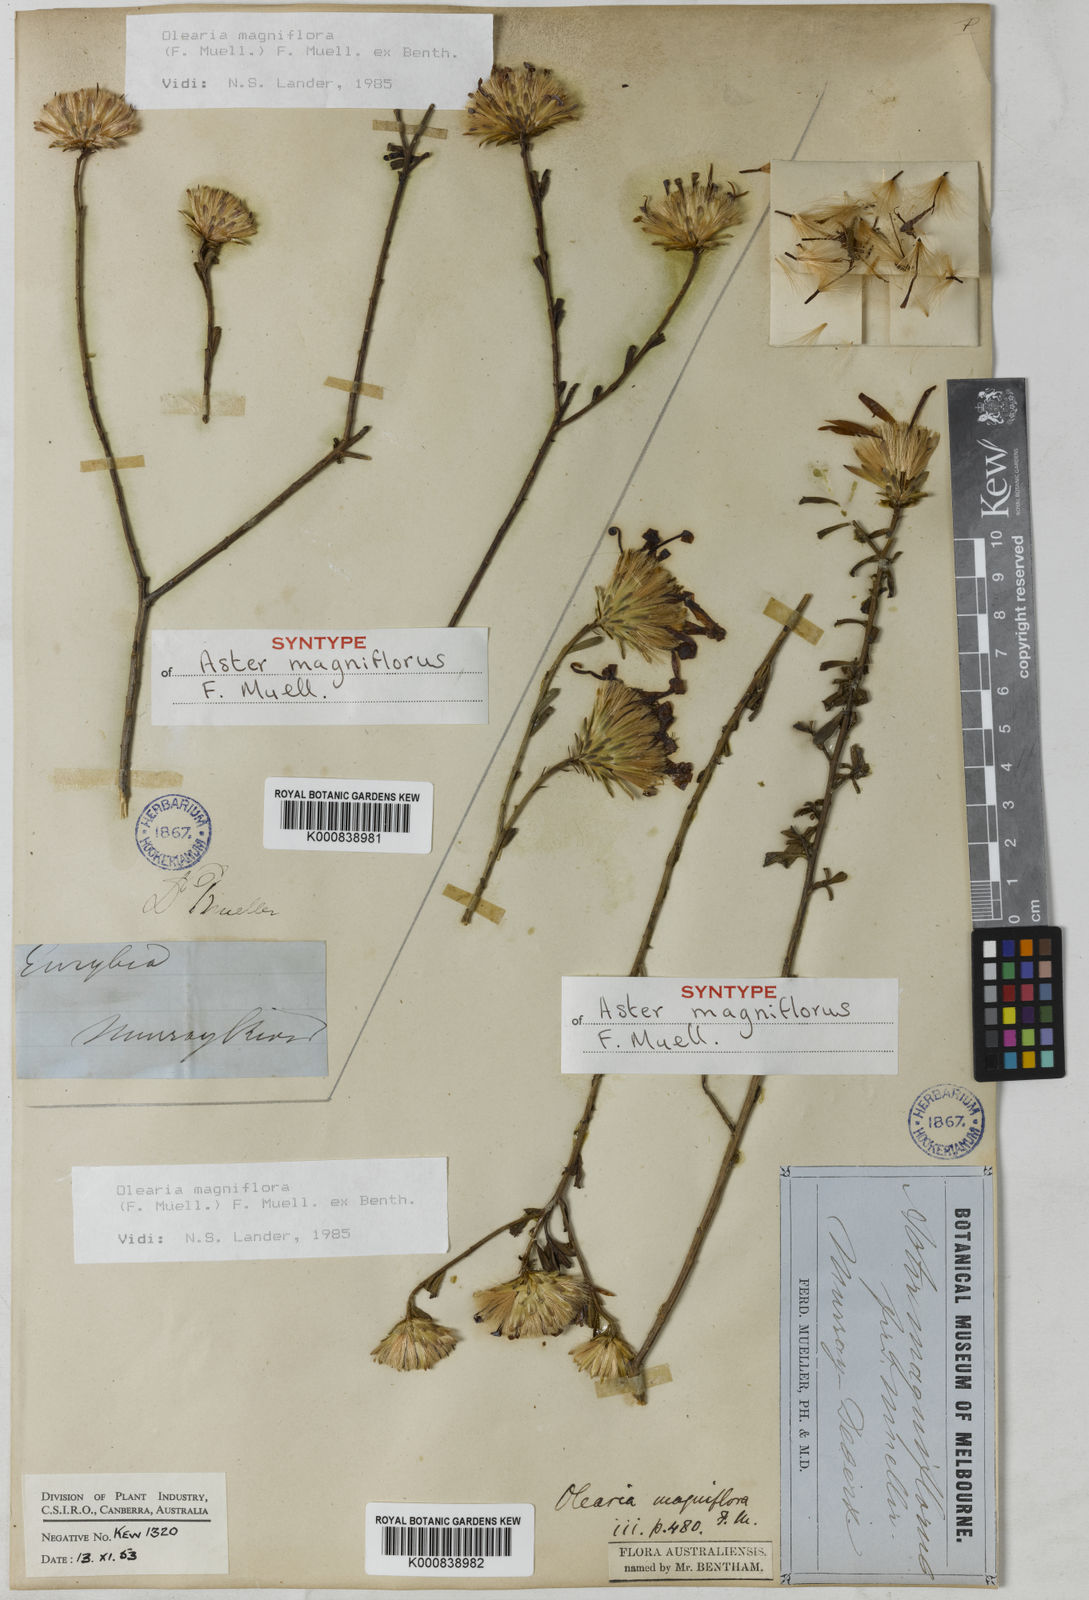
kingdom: Plantae
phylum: Tracheophyta
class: Magnoliopsida
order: Asterales
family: Asteraceae
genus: Walsholaria
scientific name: Walsholaria magniflora
